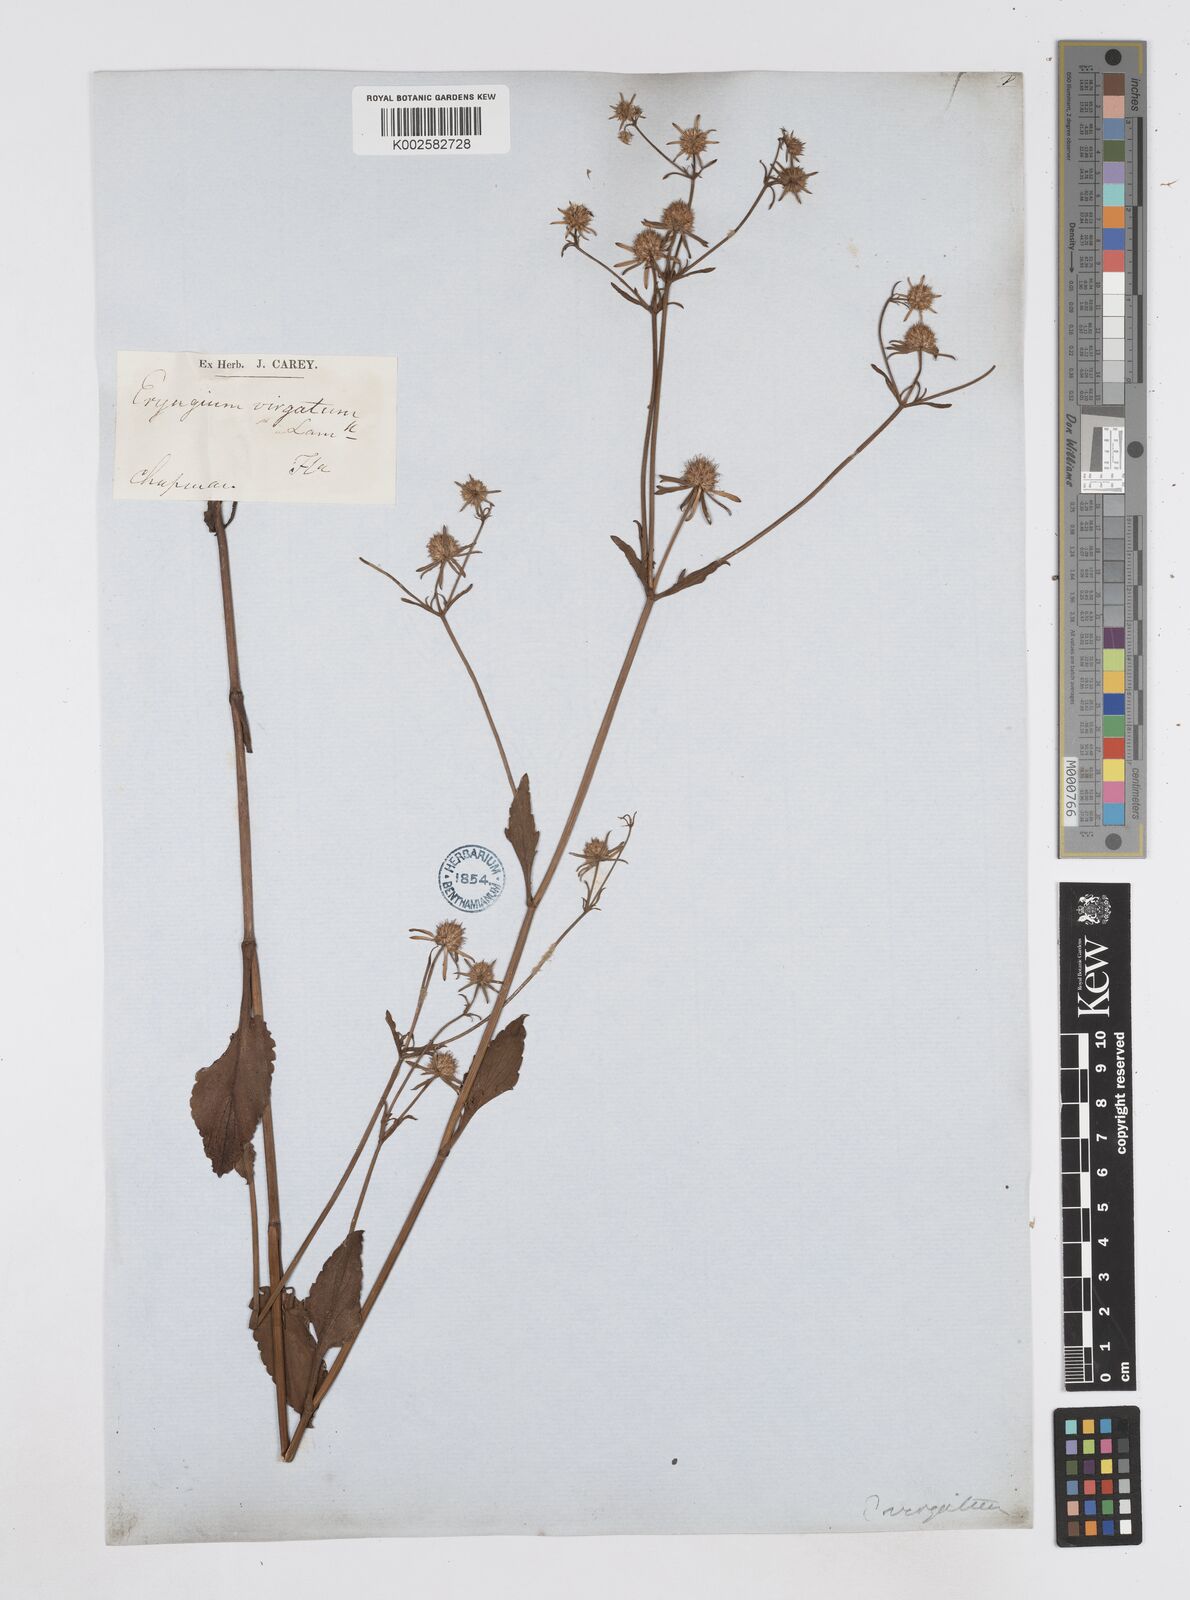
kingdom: Plantae
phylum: Tracheophyta
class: Magnoliopsida
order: Apiales
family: Apiaceae
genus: Eryngium
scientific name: Eryngium integrifolium
